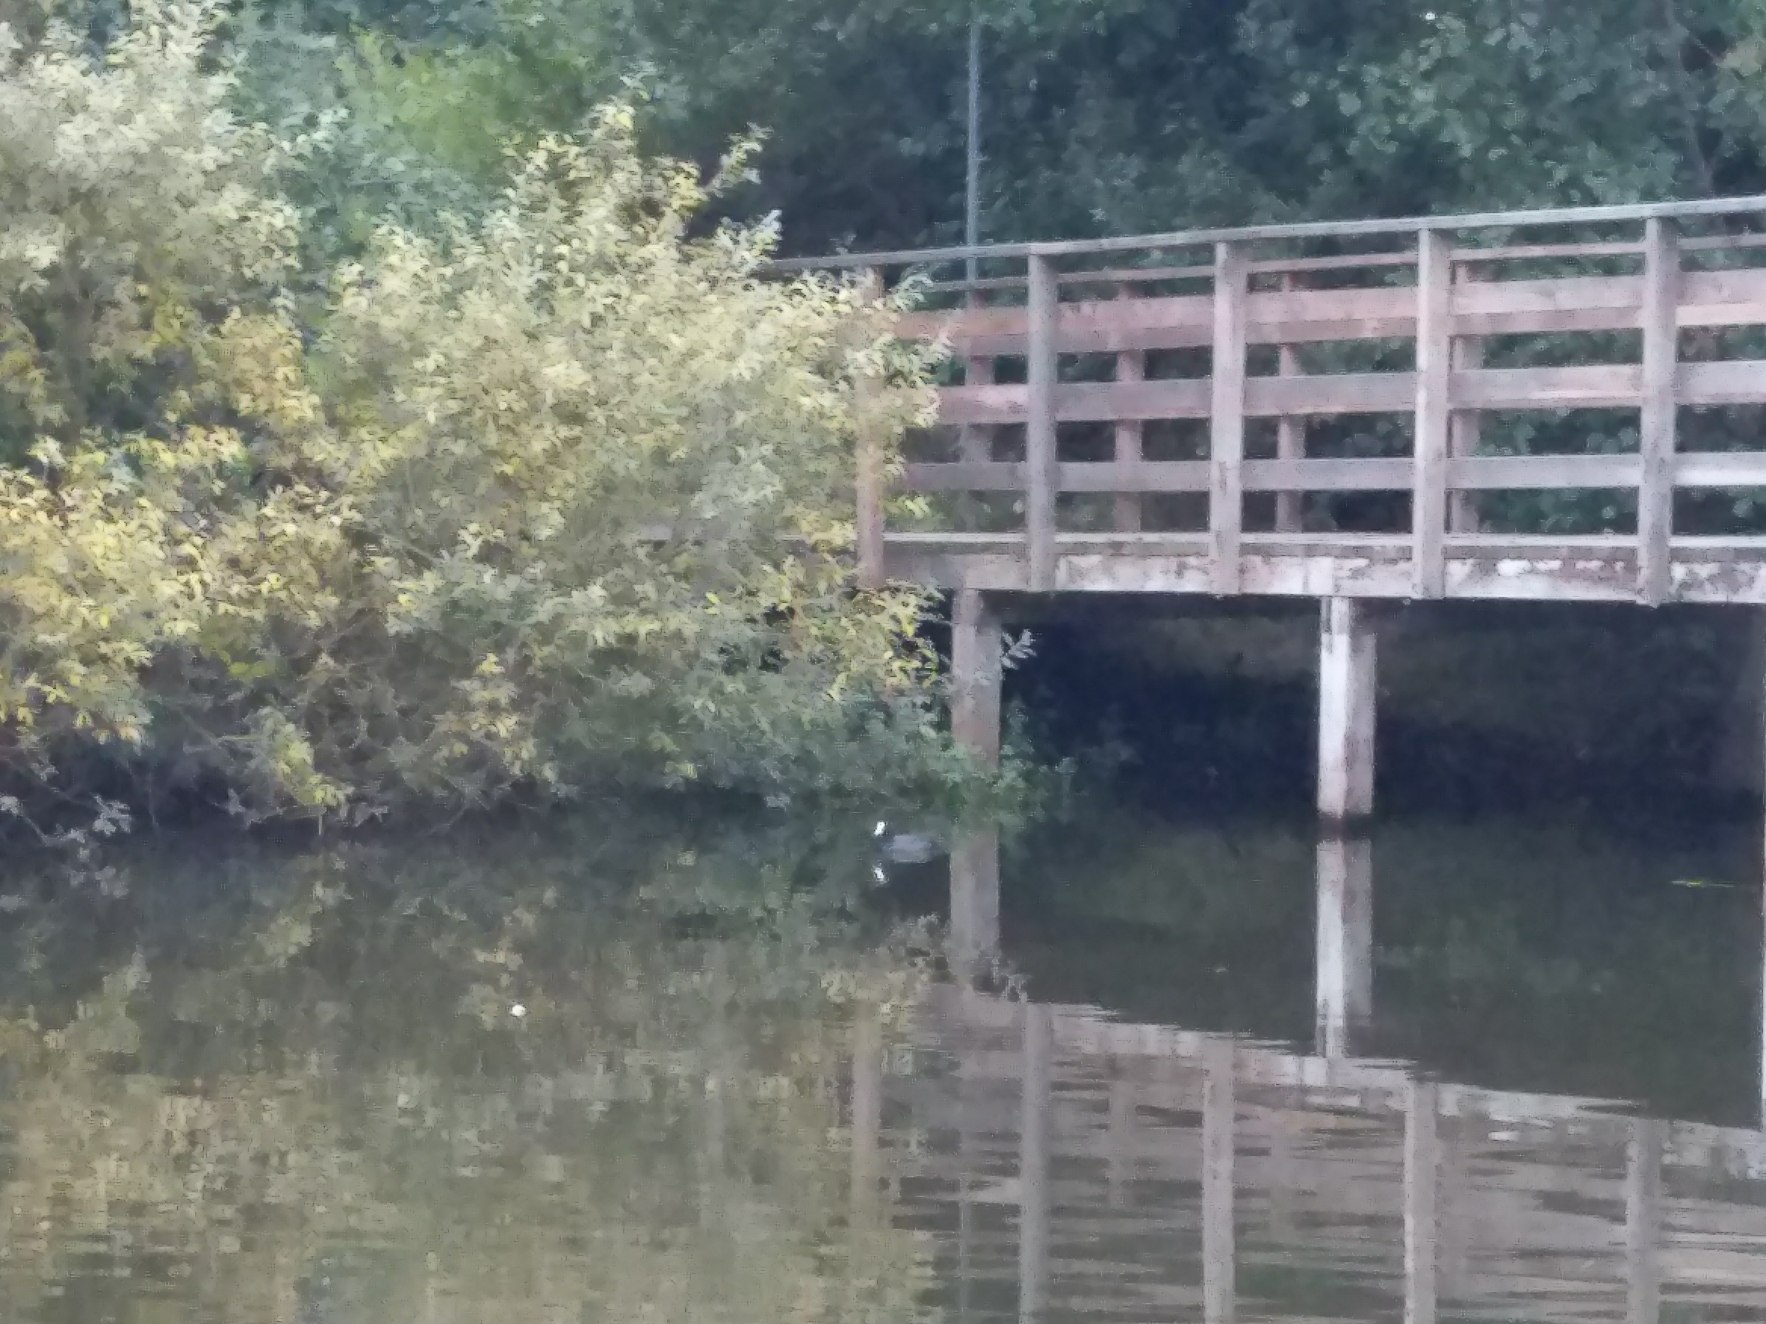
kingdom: Animalia
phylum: Chordata
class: Aves
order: Gruiformes
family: Rallidae
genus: Fulica
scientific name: Fulica atra
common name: Blishøne
